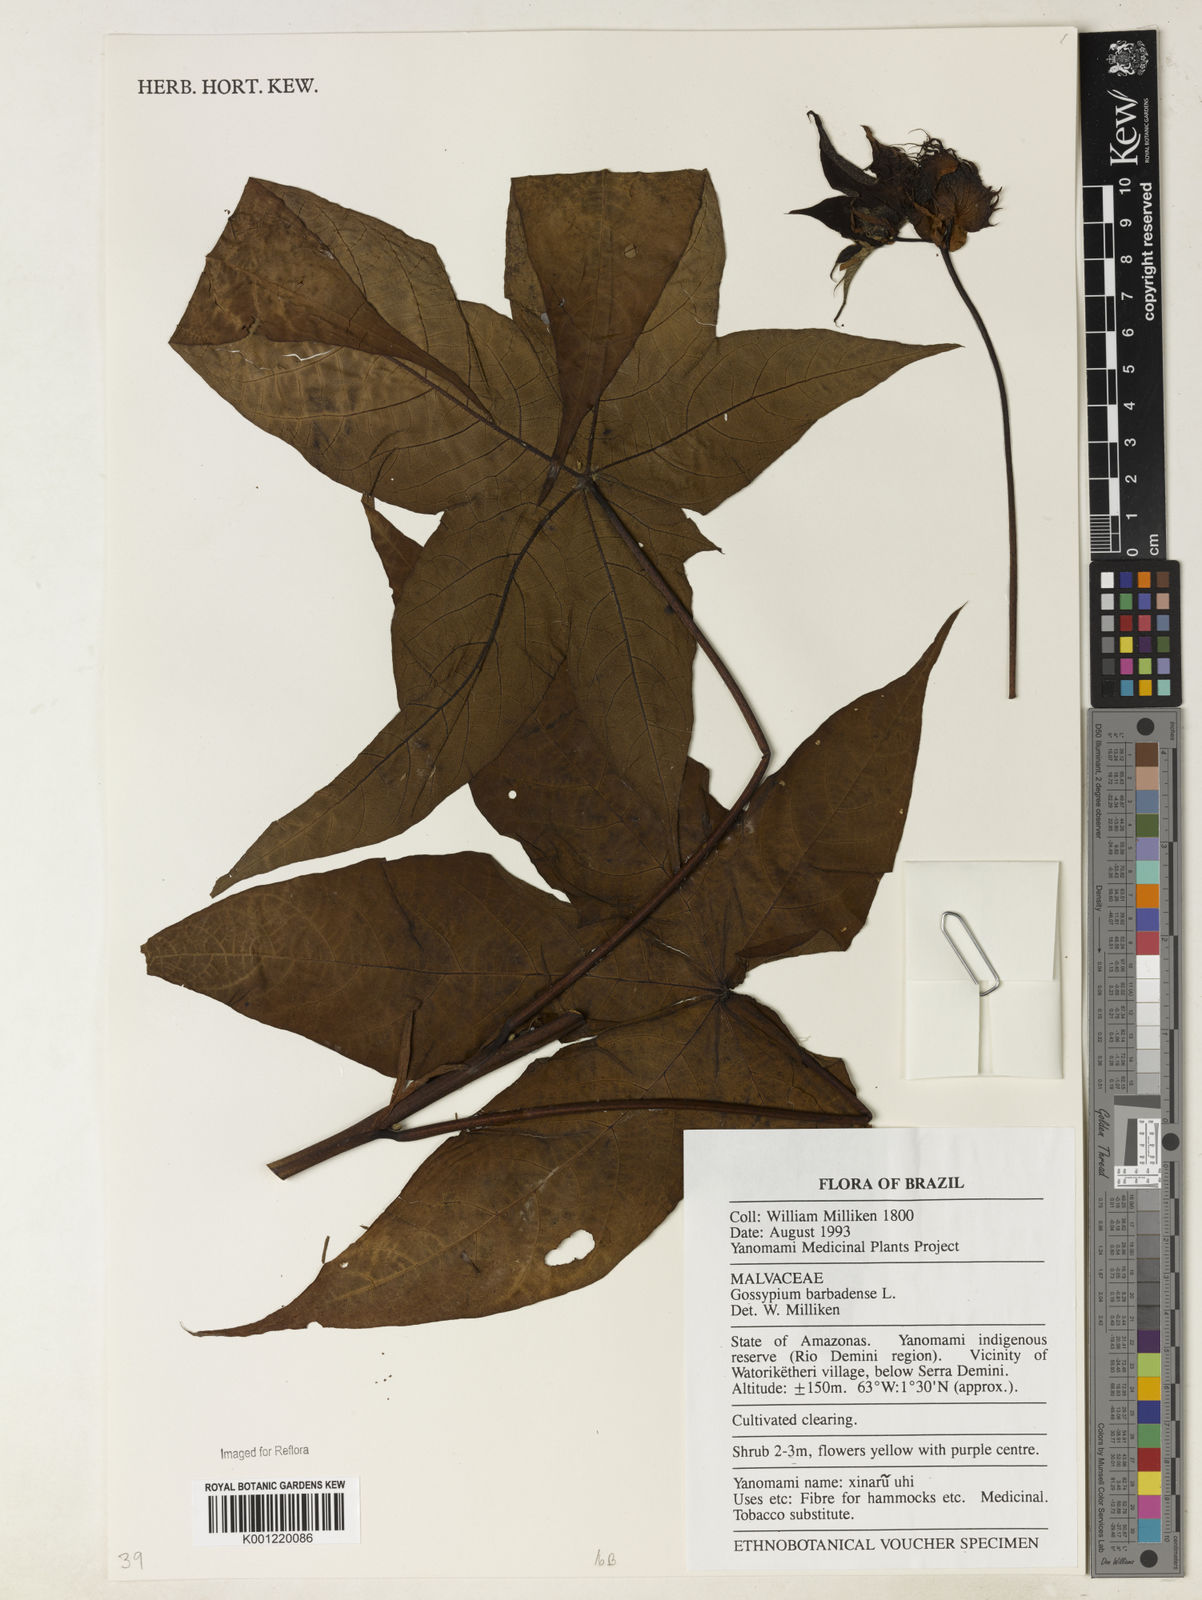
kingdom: Plantae
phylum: Tracheophyta
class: Magnoliopsida
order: Malvales
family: Malvaceae
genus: Gossypium
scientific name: Gossypium barbadense
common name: Creole cotton
